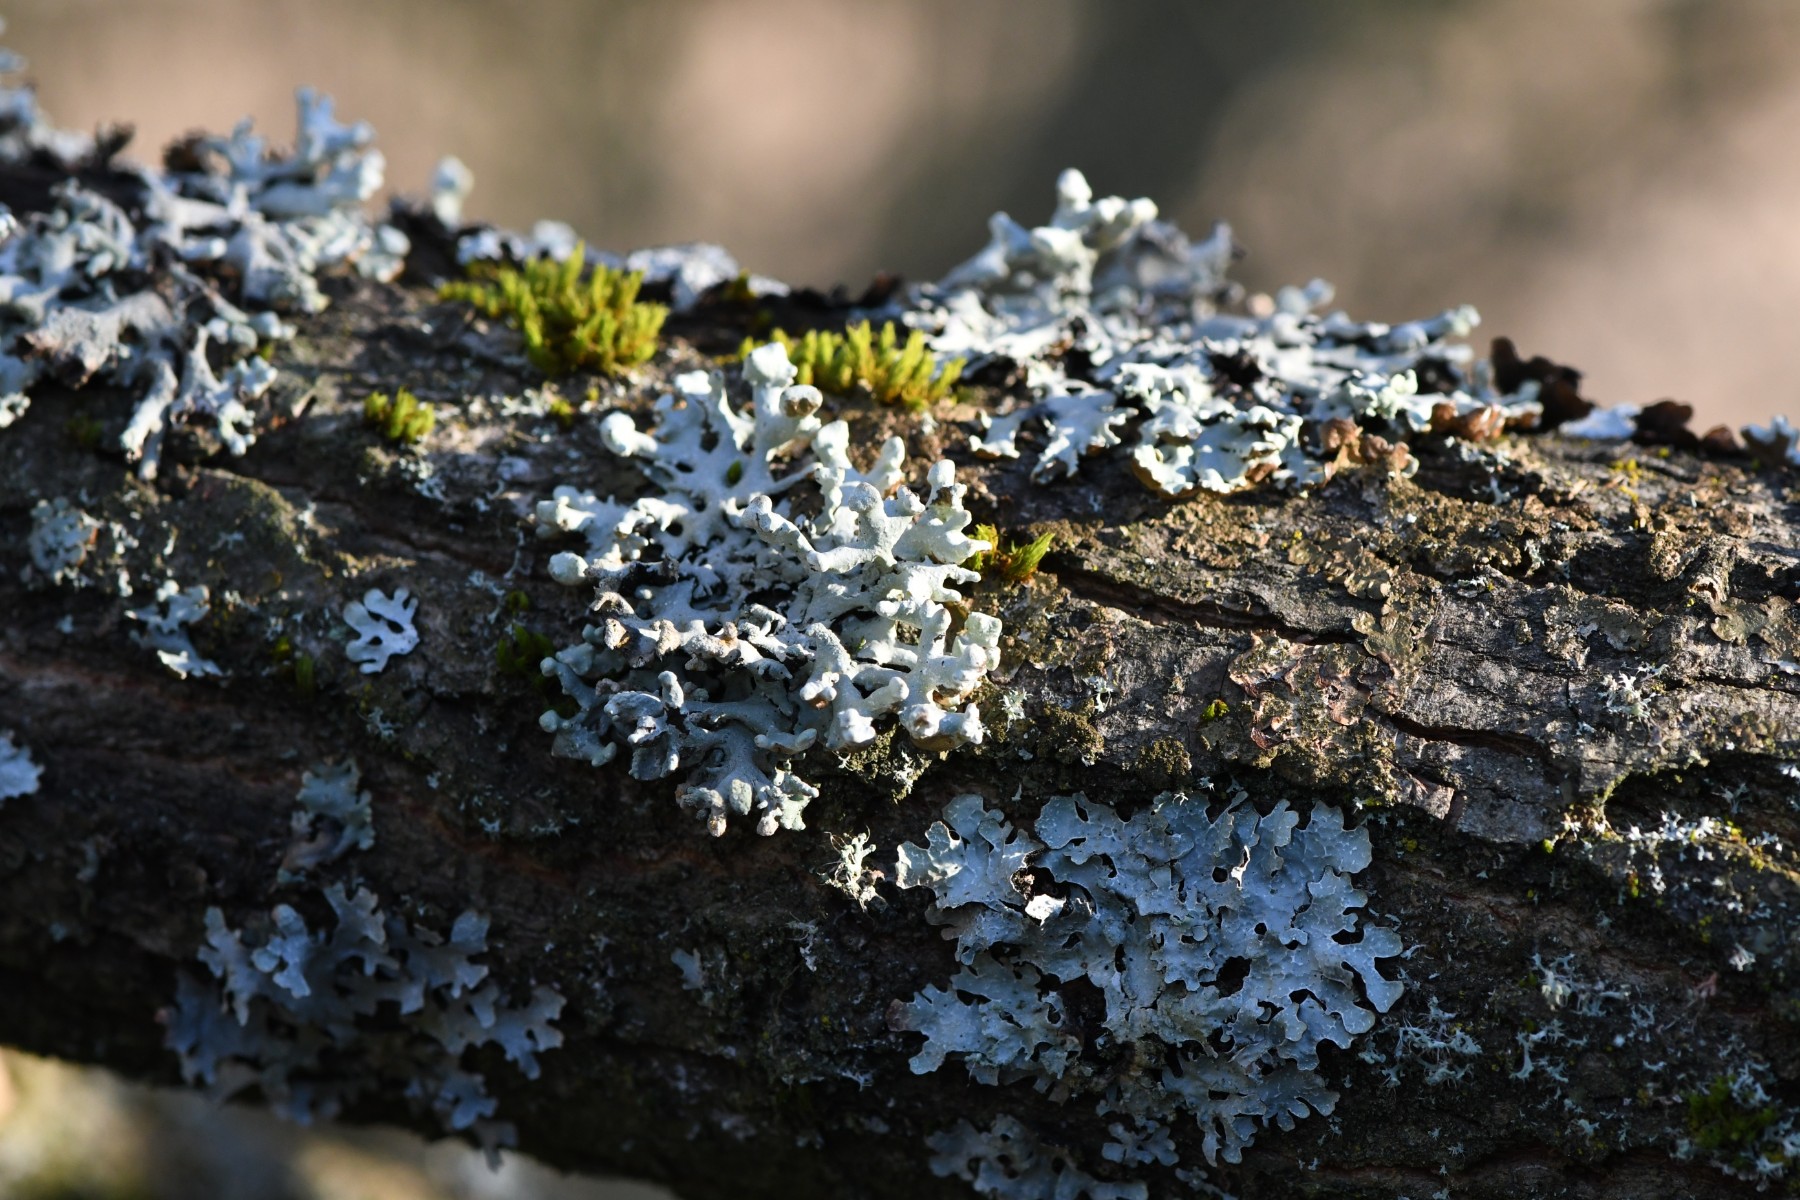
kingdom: Fungi
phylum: Ascomycota
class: Lecanoromycetes
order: Lecanorales
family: Parmeliaceae
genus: Hypogymnia
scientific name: Hypogymnia tubulosa
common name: finger-kvistlav
